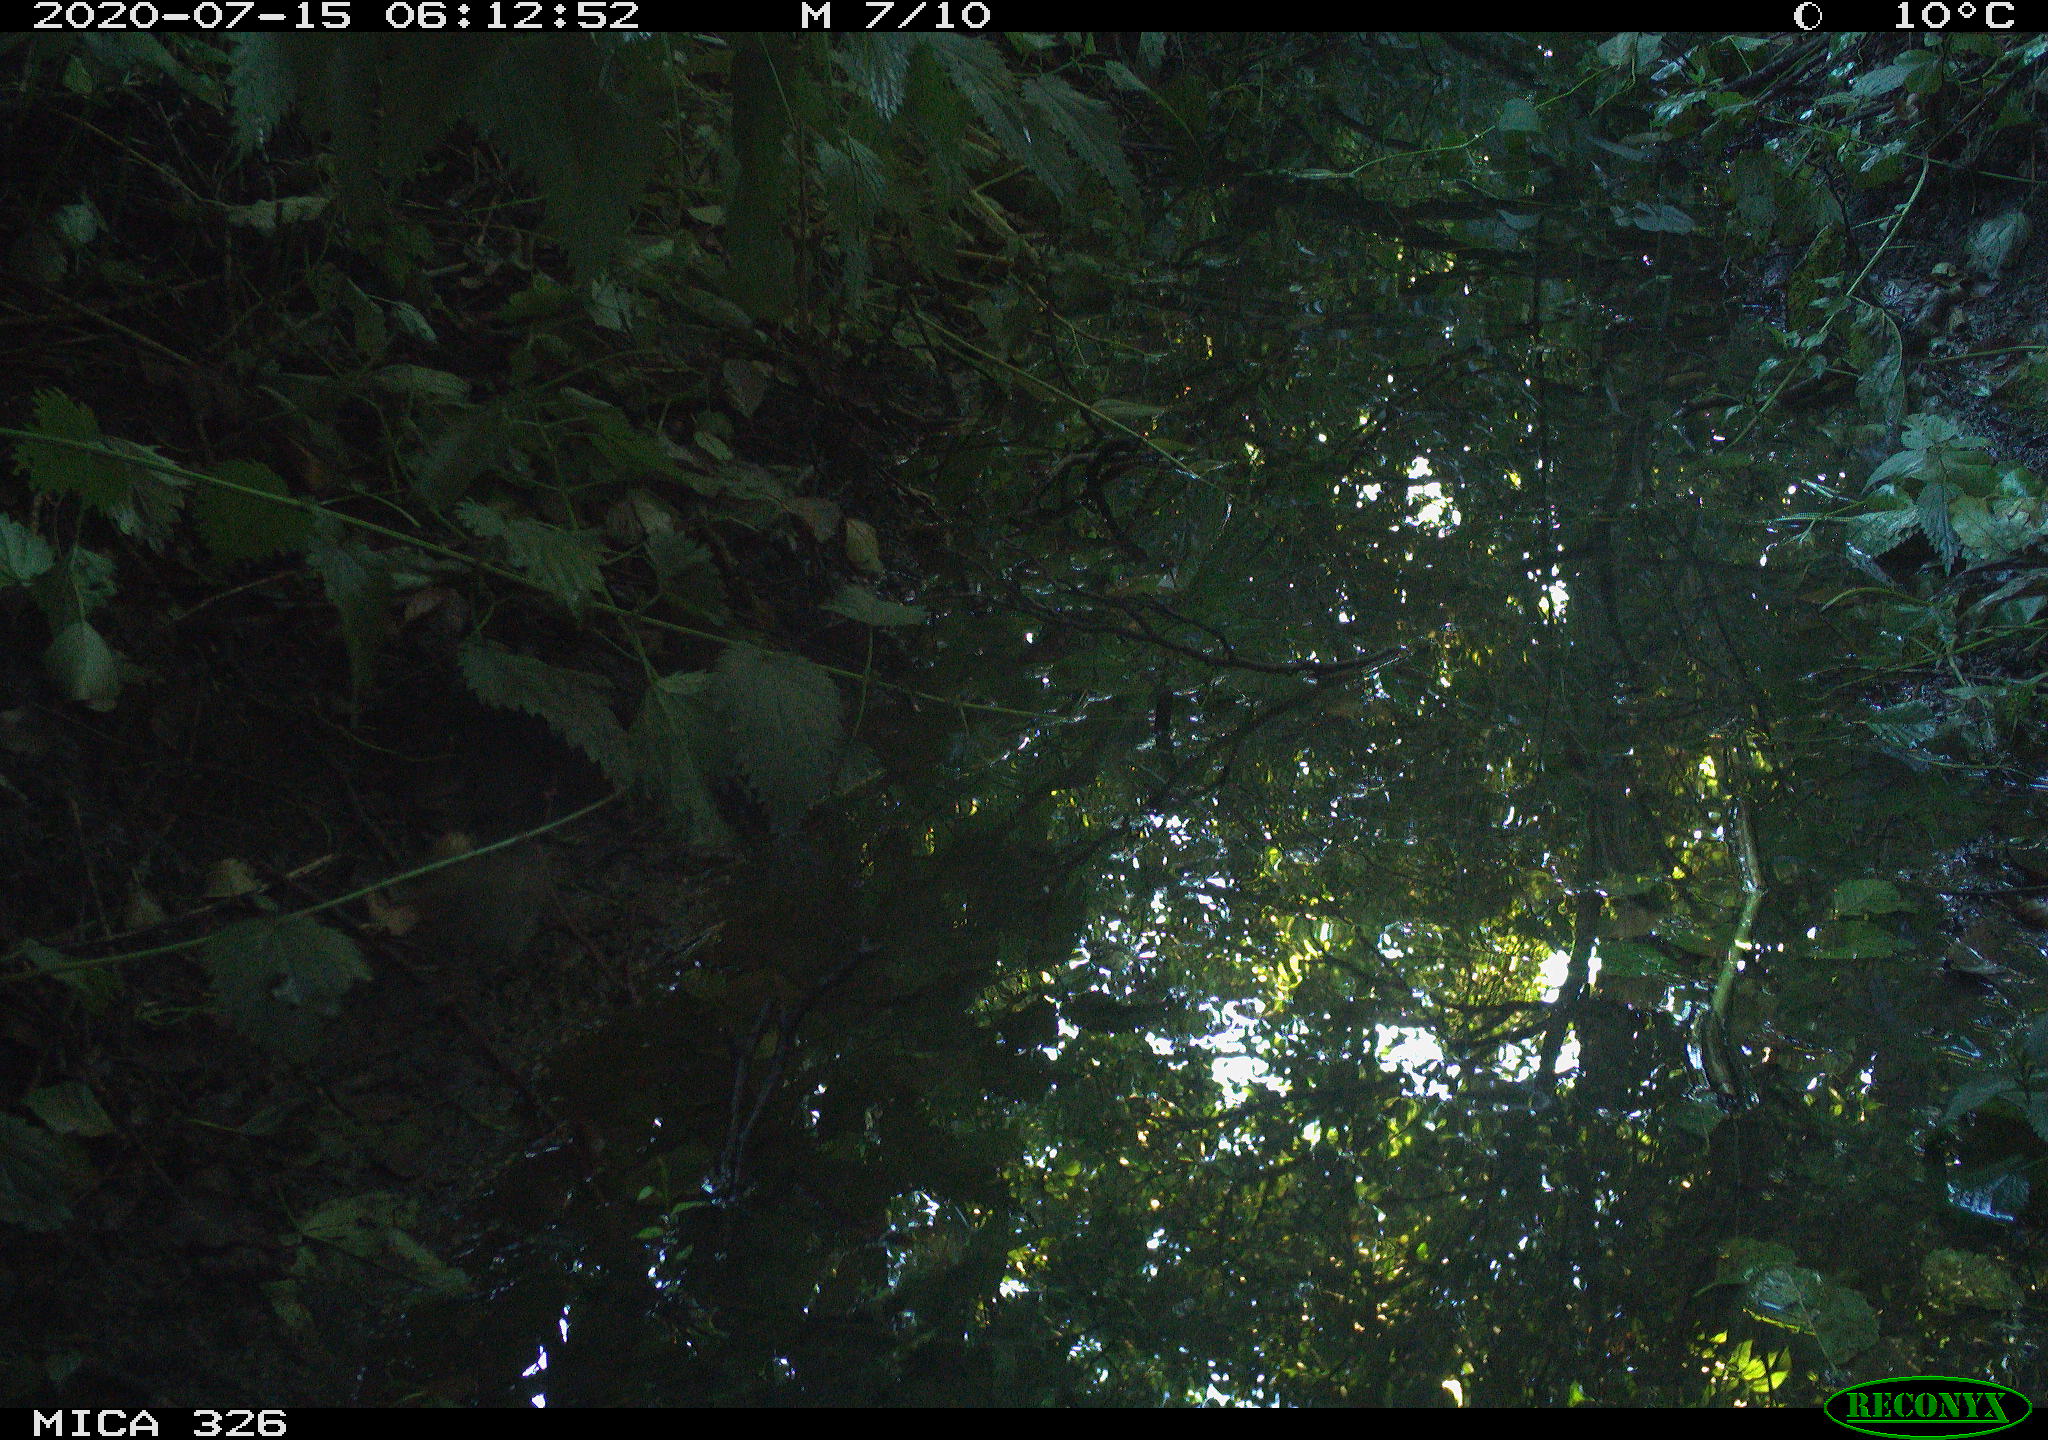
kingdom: Animalia
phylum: Chordata
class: Aves
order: Passeriformes
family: Muscicapidae
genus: Erithacus
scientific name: Erithacus rubecula
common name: European robin
